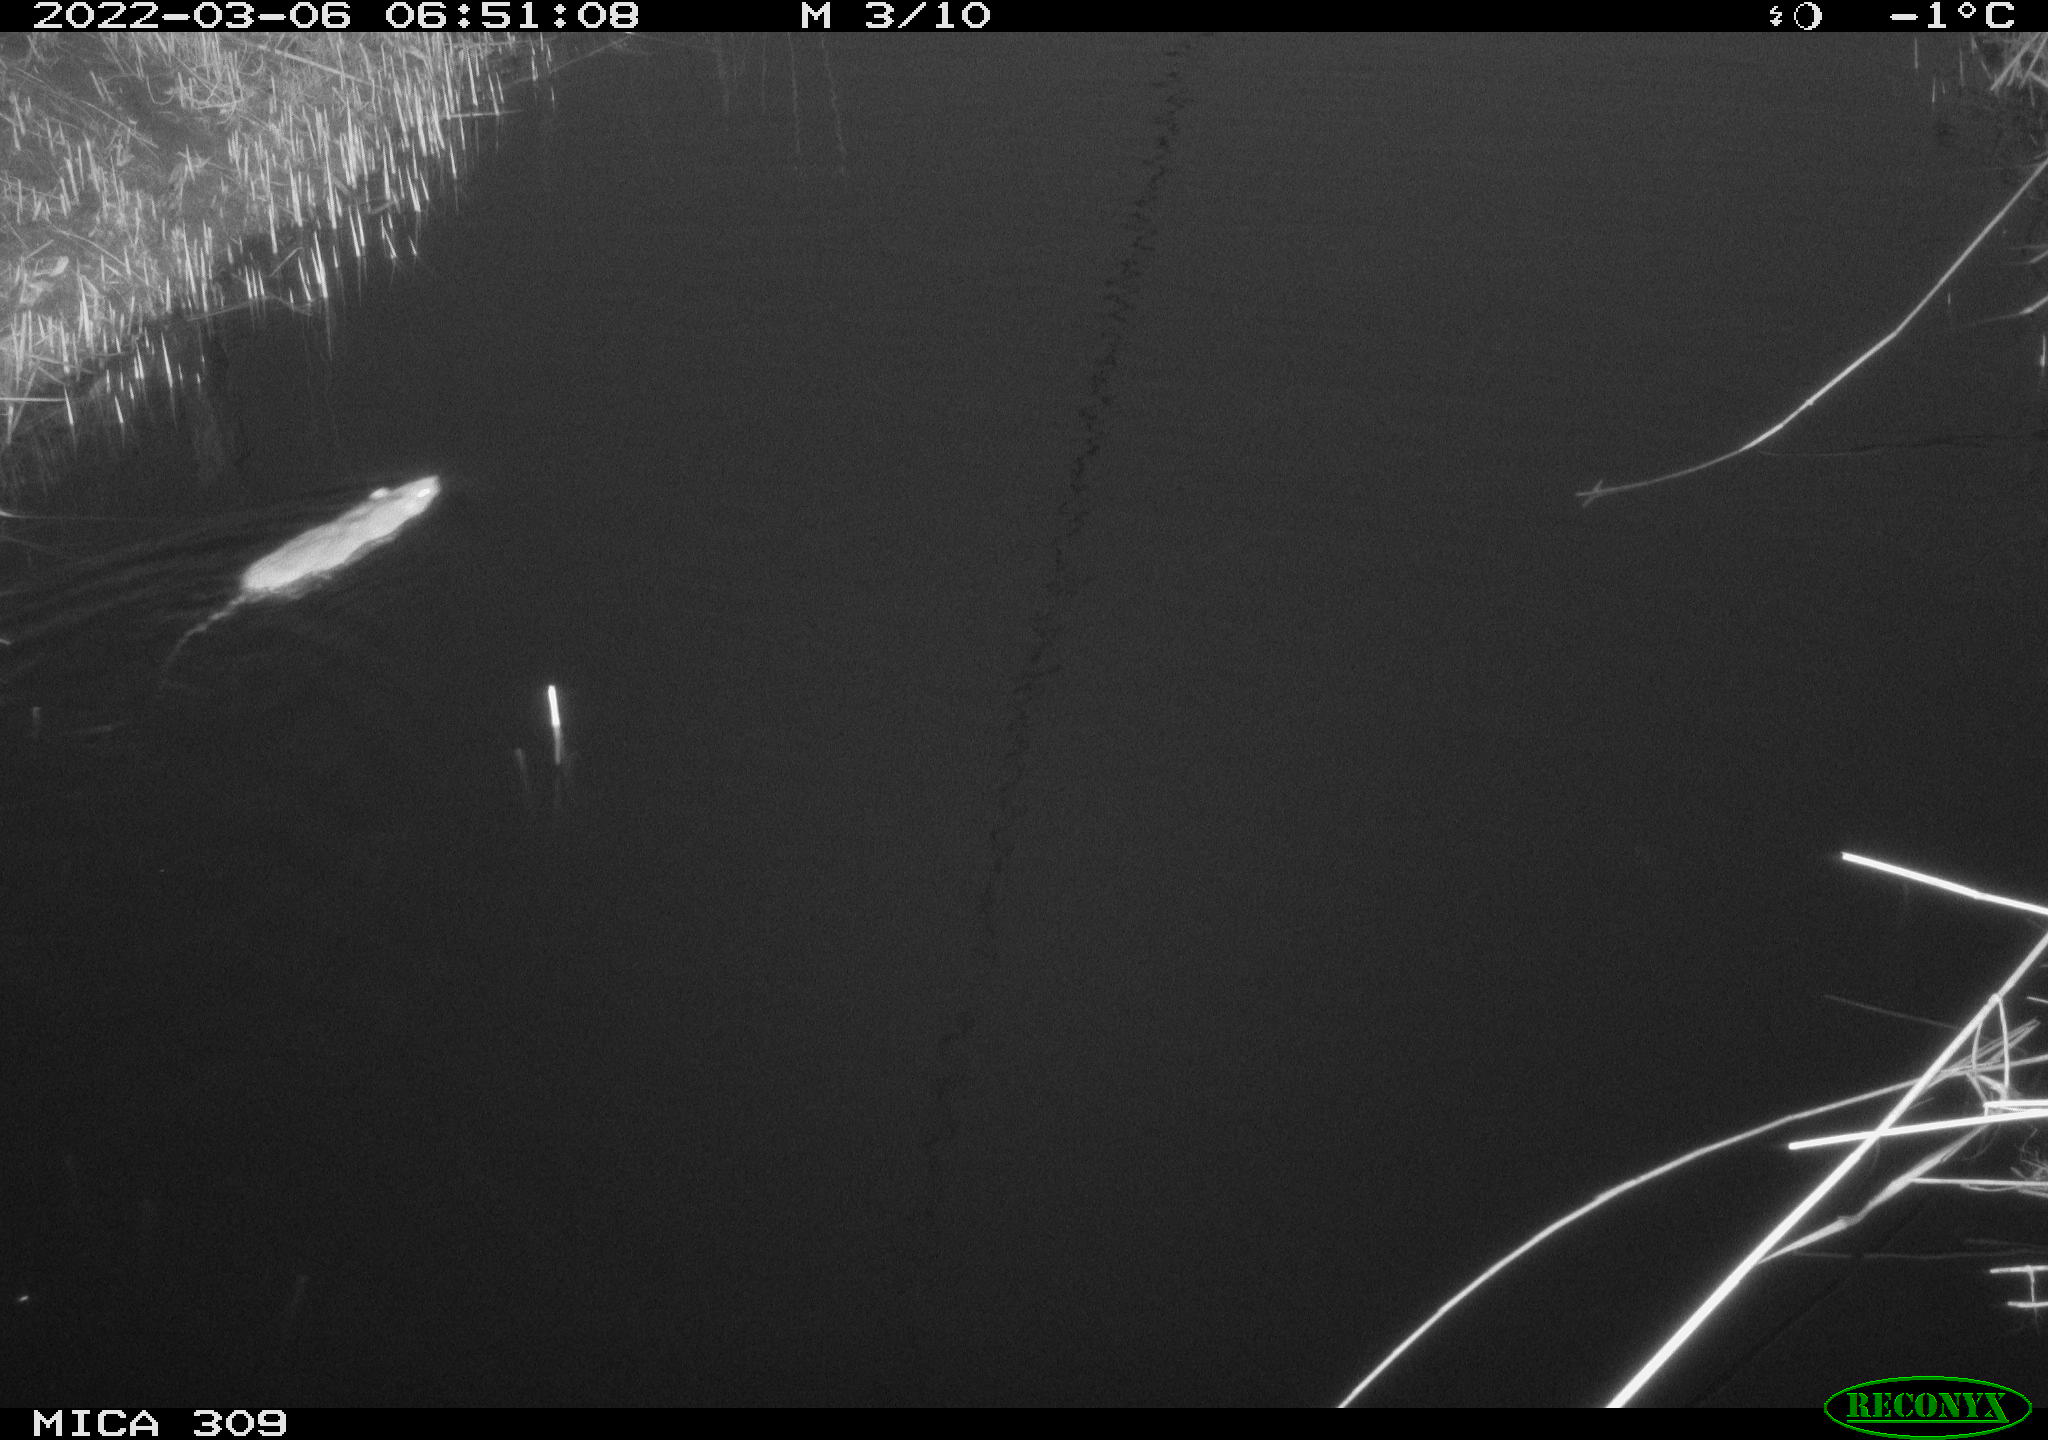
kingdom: Animalia
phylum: Chordata
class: Mammalia
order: Rodentia
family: Muridae
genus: Rattus
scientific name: Rattus norvegicus
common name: Brown rat
